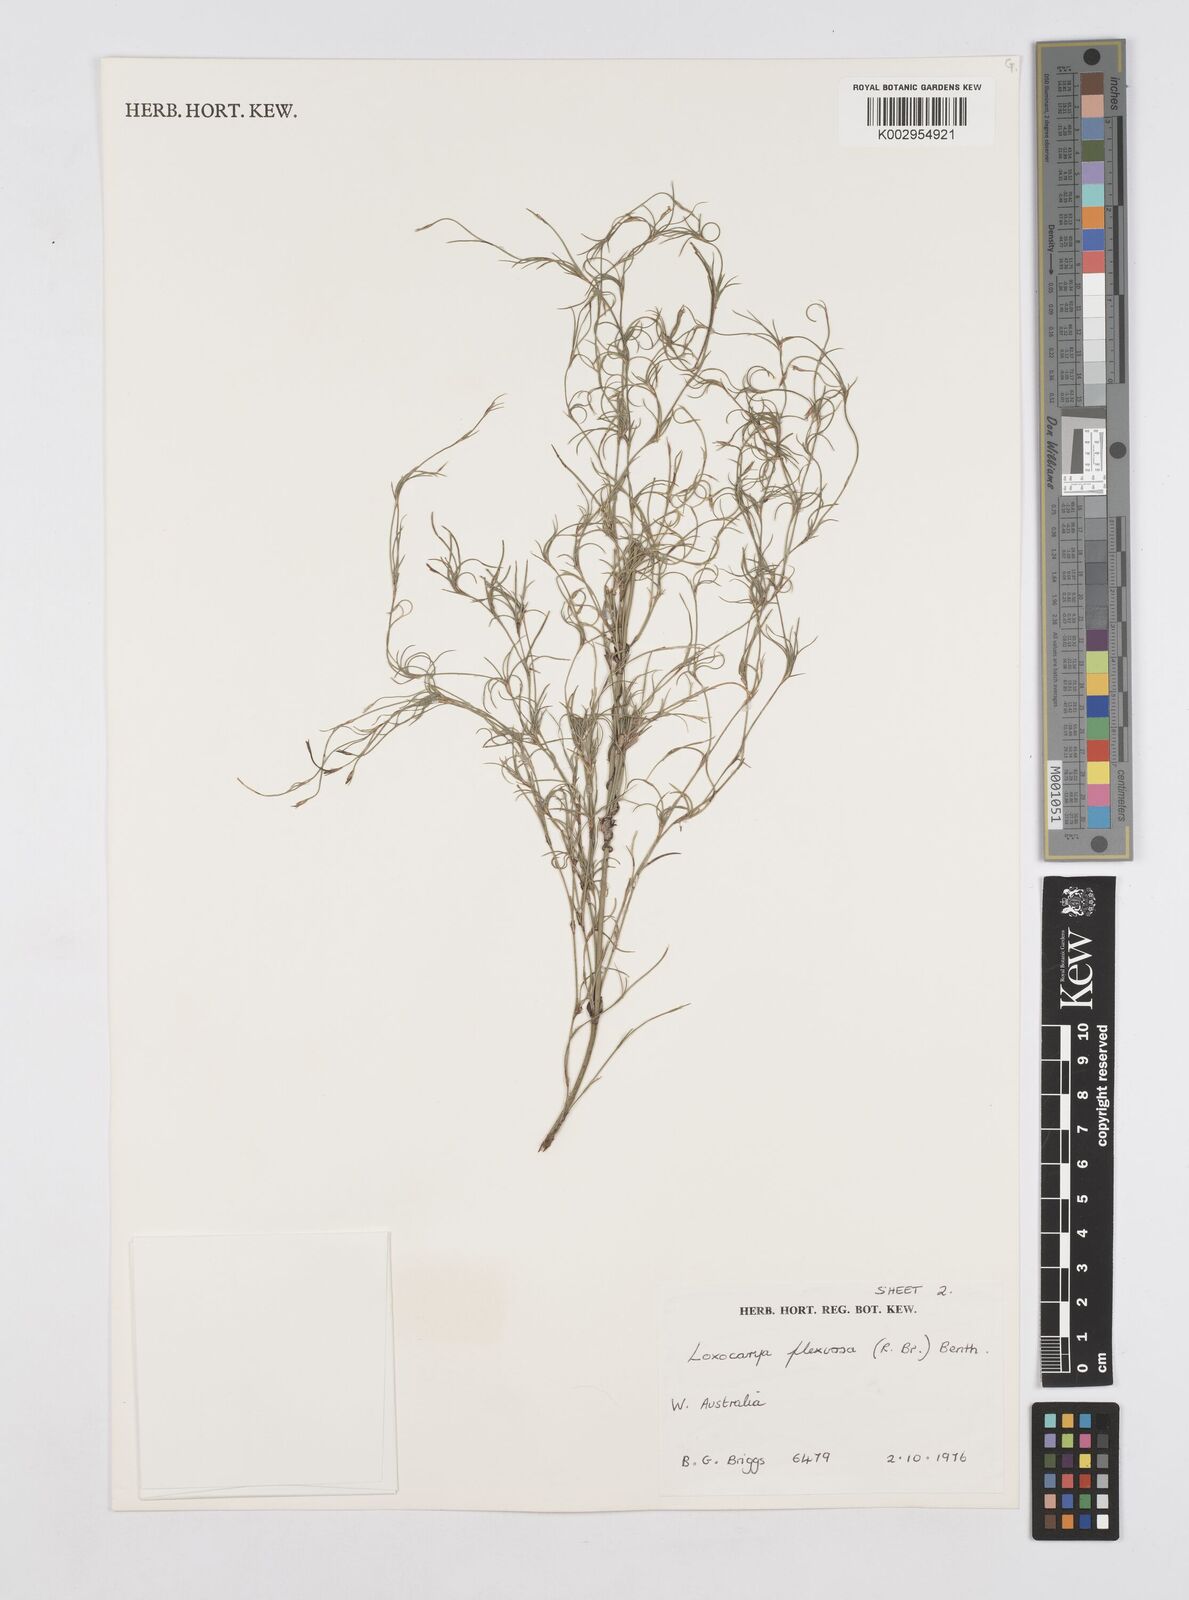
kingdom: Plantae
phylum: Tracheophyta
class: Liliopsida
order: Poales
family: Restionaceae
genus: Desmocladus
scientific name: Desmocladus flexuosus
